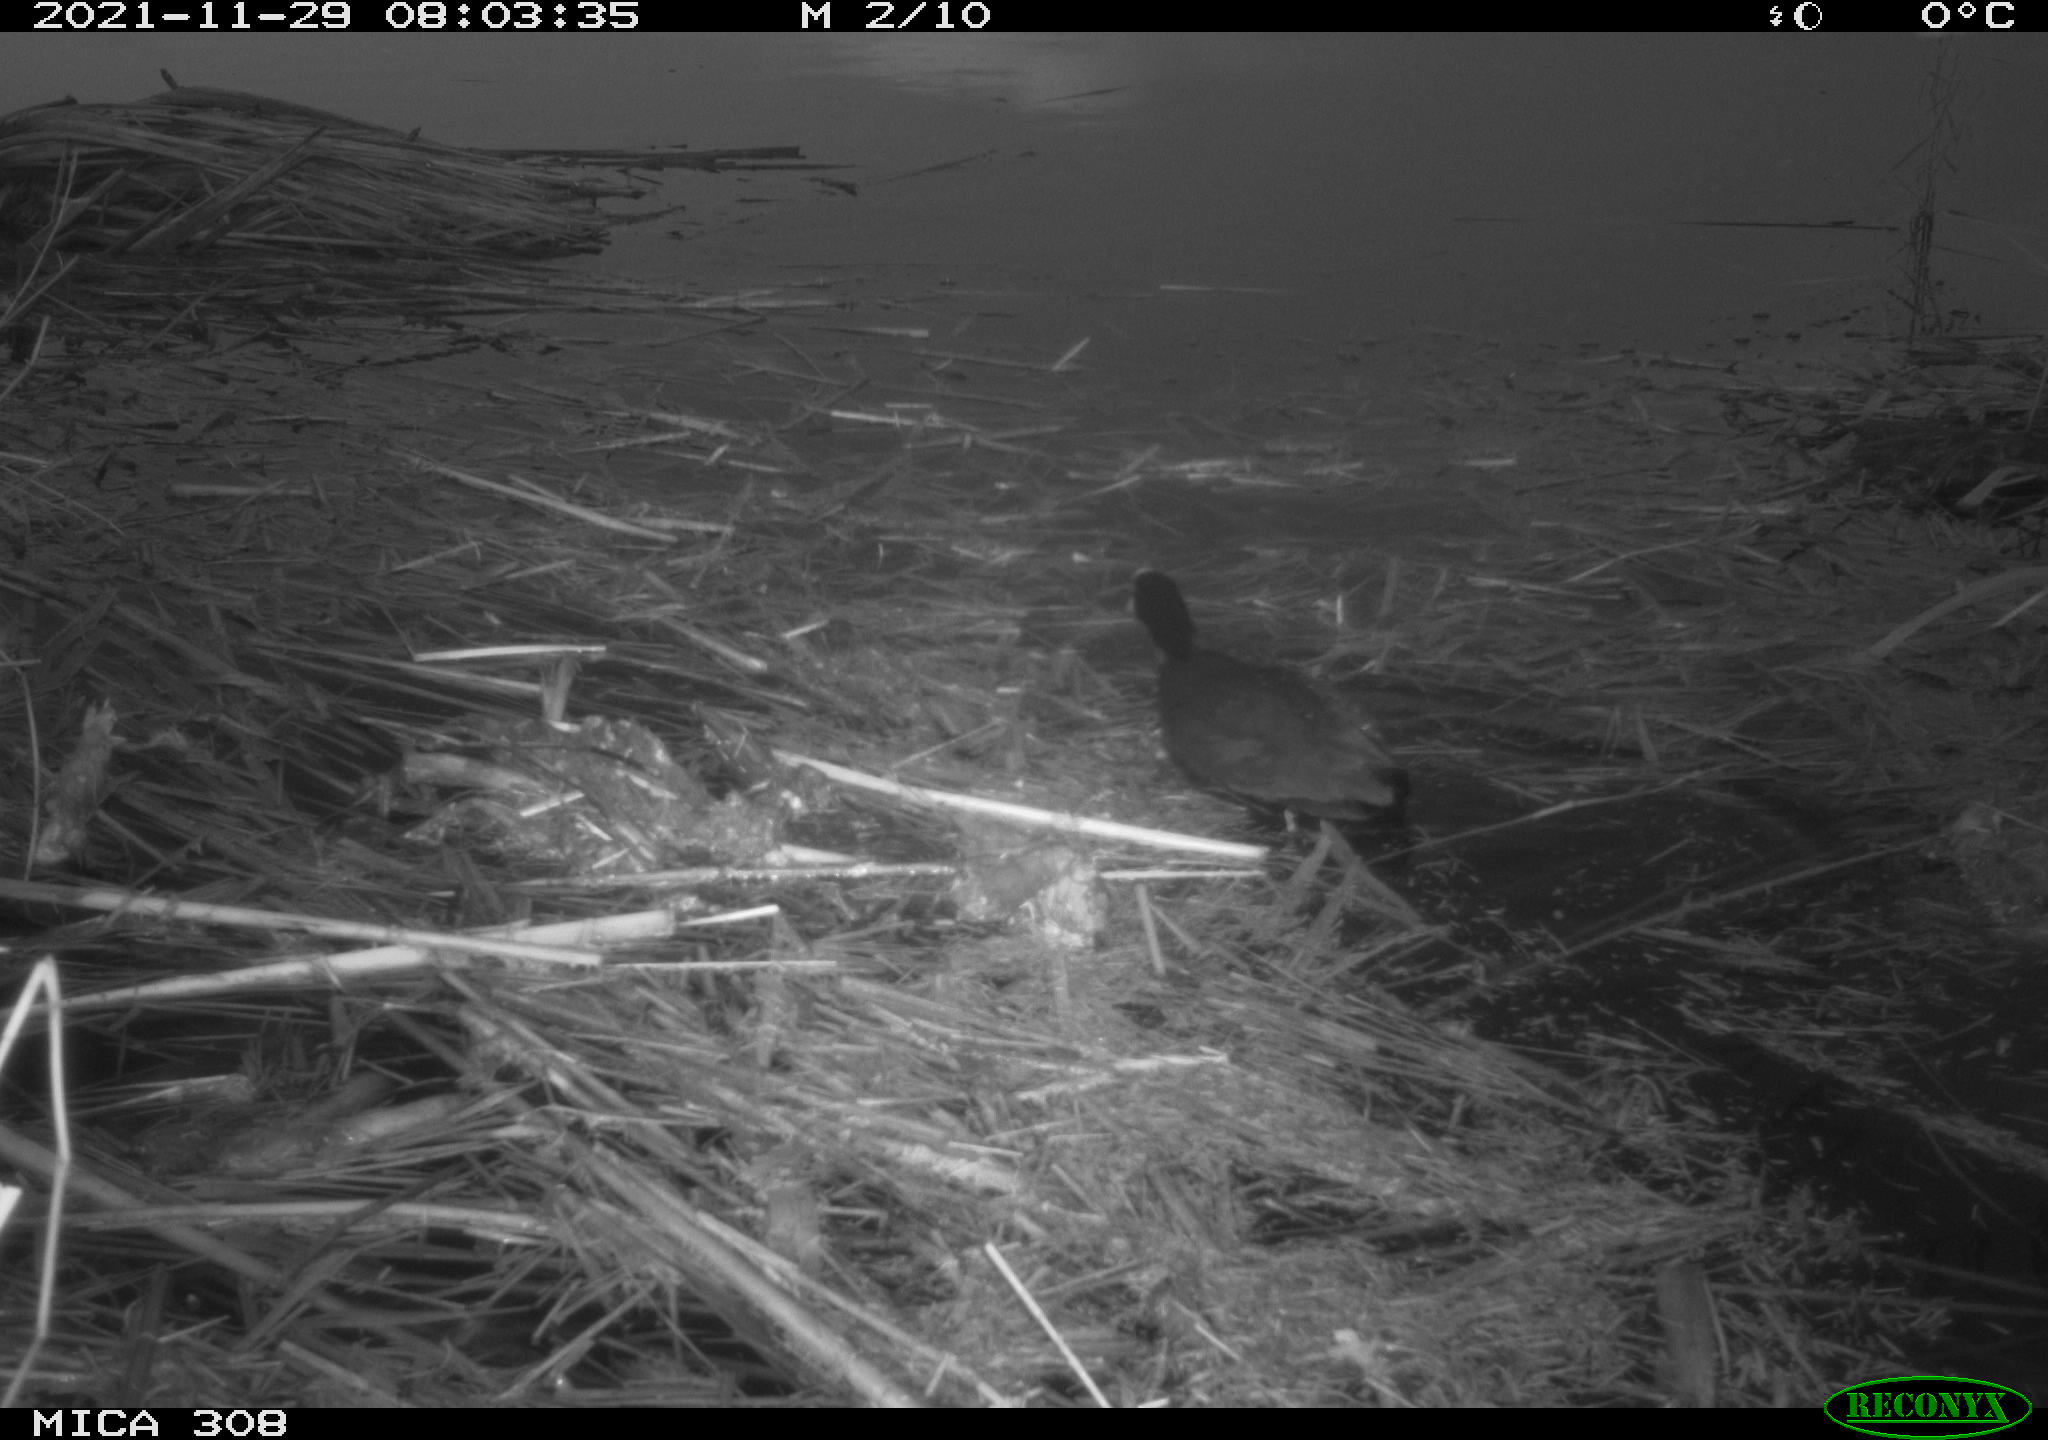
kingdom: Animalia
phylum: Chordata
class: Aves
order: Gruiformes
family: Rallidae
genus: Gallinula
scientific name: Gallinula chloropus
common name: Common moorhen
